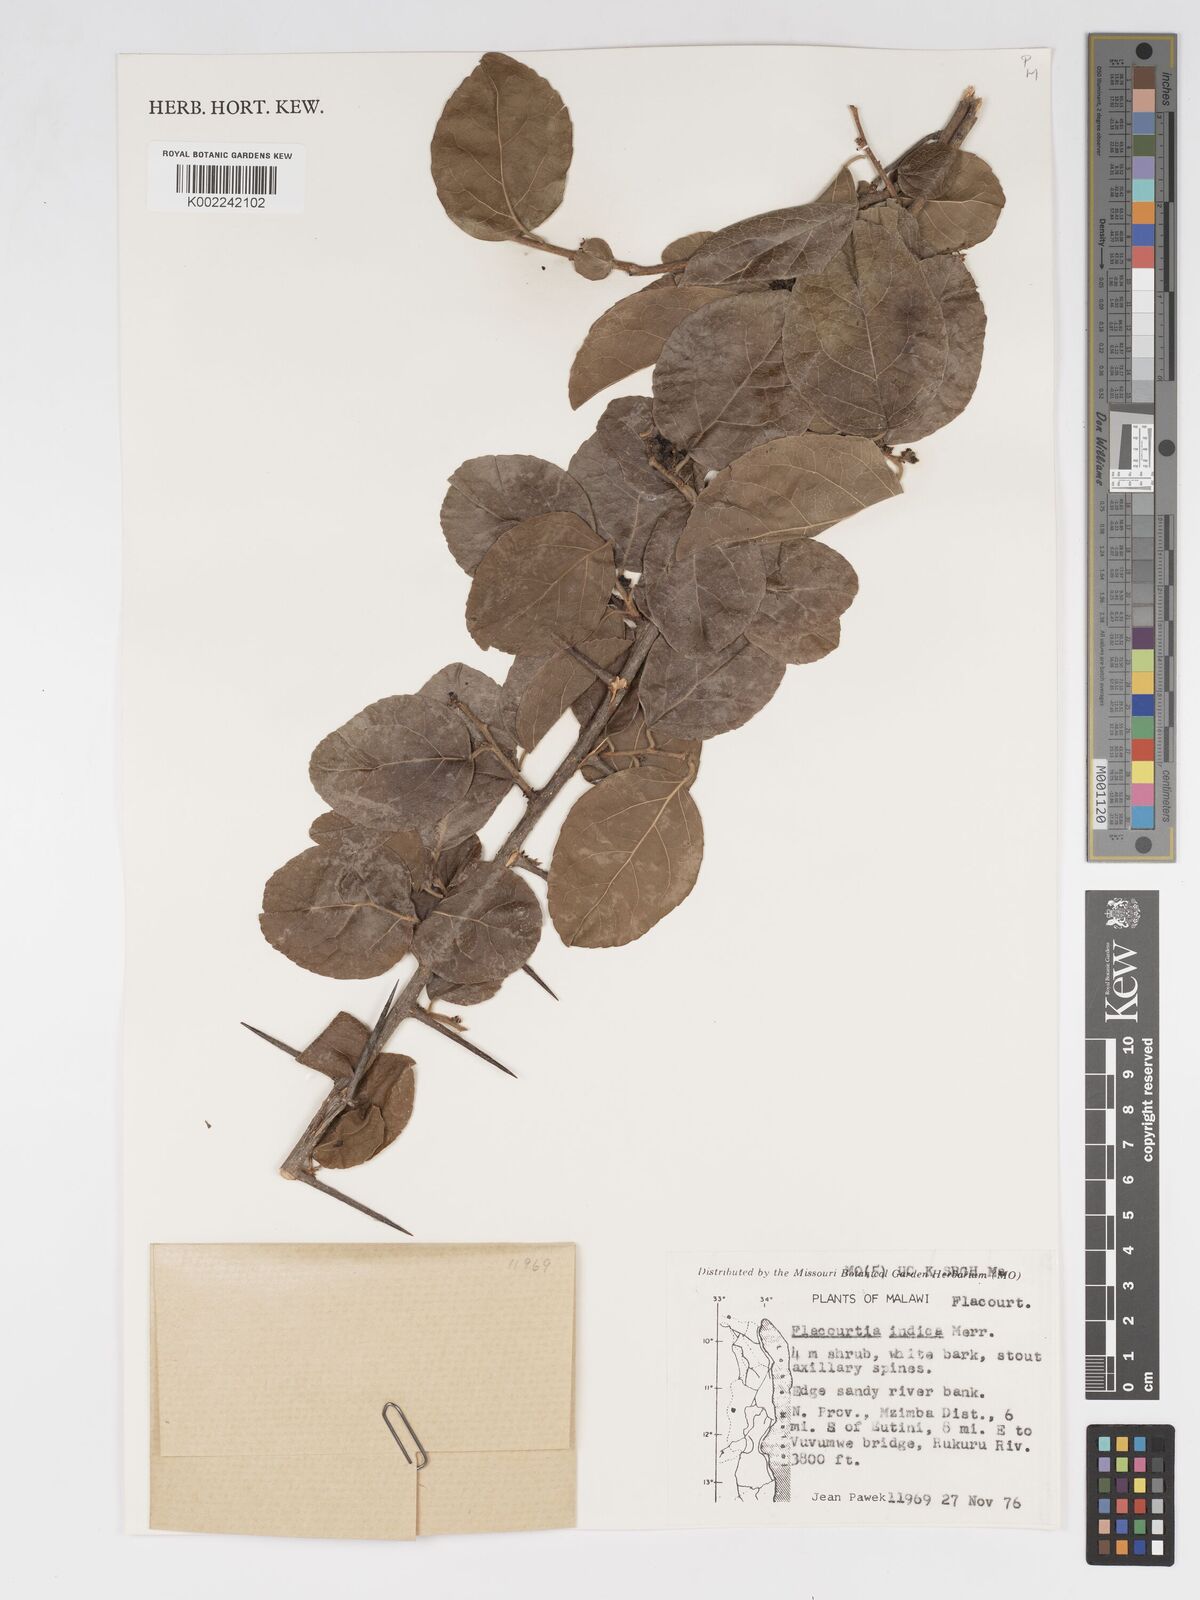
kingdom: Plantae
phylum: Tracheophyta
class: Magnoliopsida
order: Malpighiales
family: Salicaceae
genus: Flacourtia
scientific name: Flacourtia indica
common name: Governor's plum
